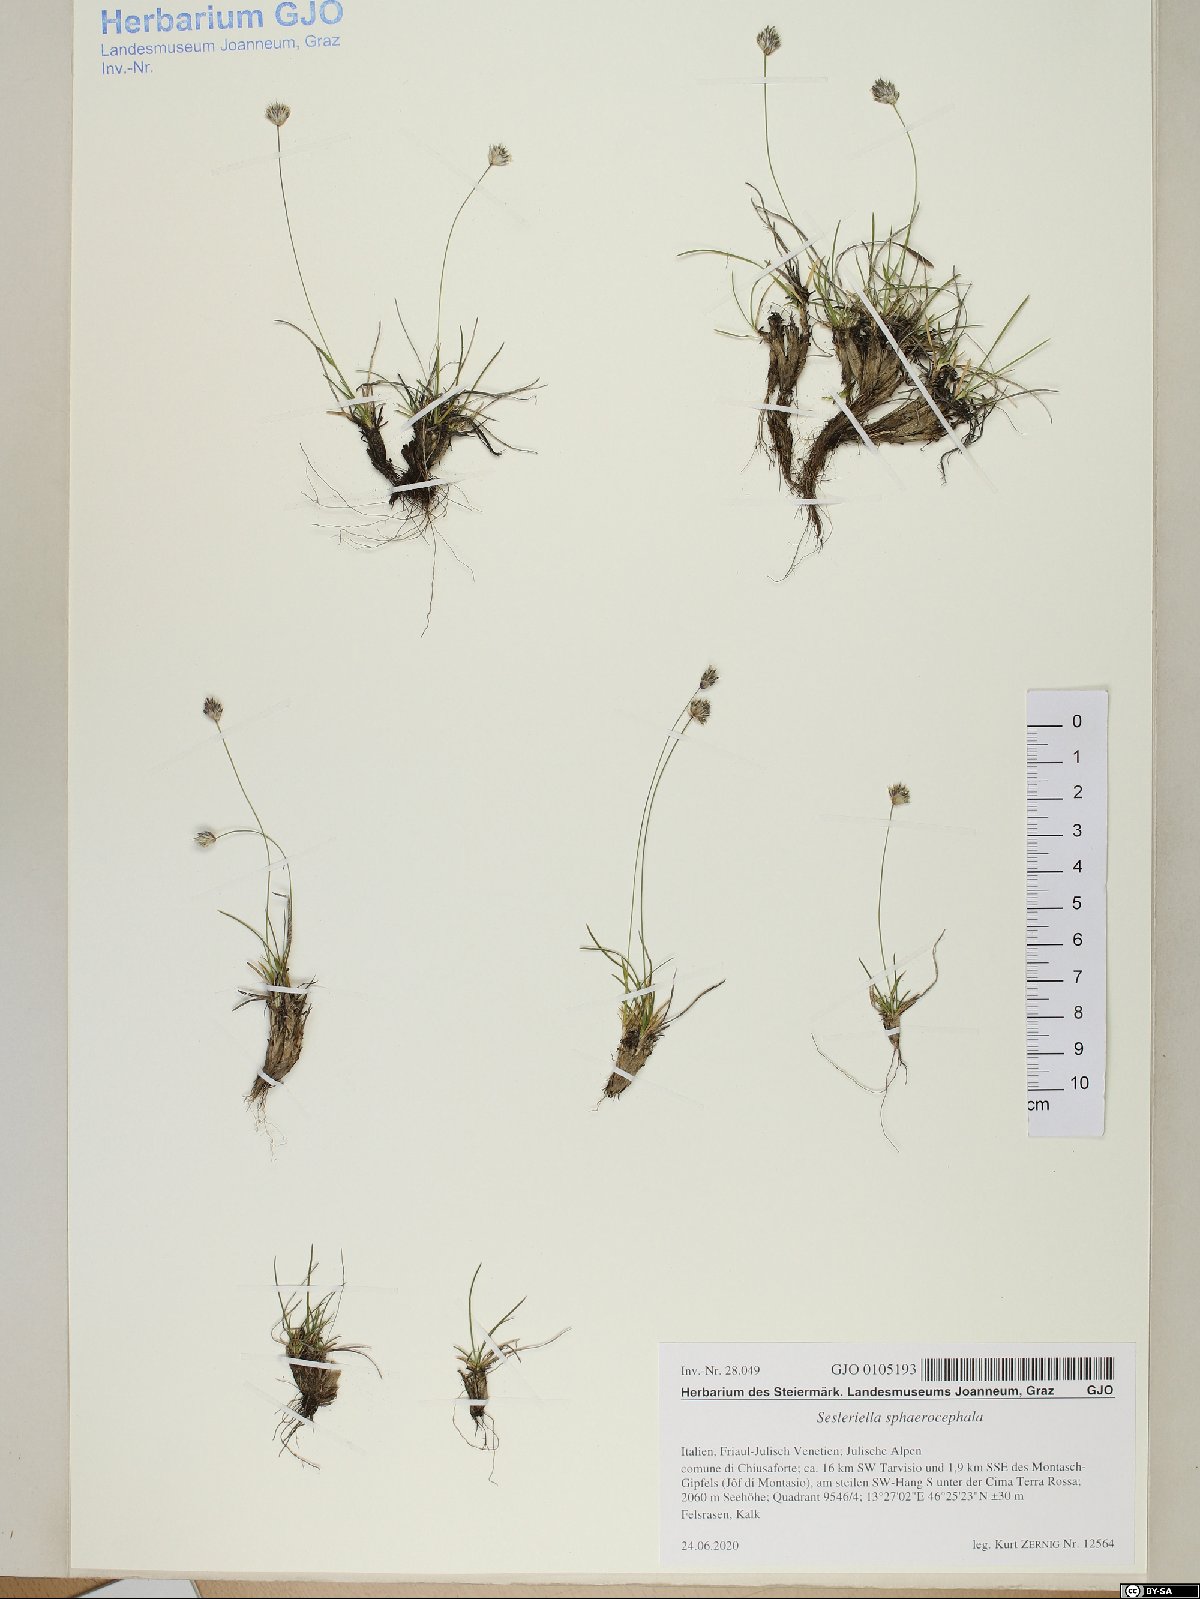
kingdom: Plantae
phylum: Tracheophyta
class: Liliopsida
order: Poales
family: Poaceae
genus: Sesleriella
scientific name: Sesleriella sphaerocephala
